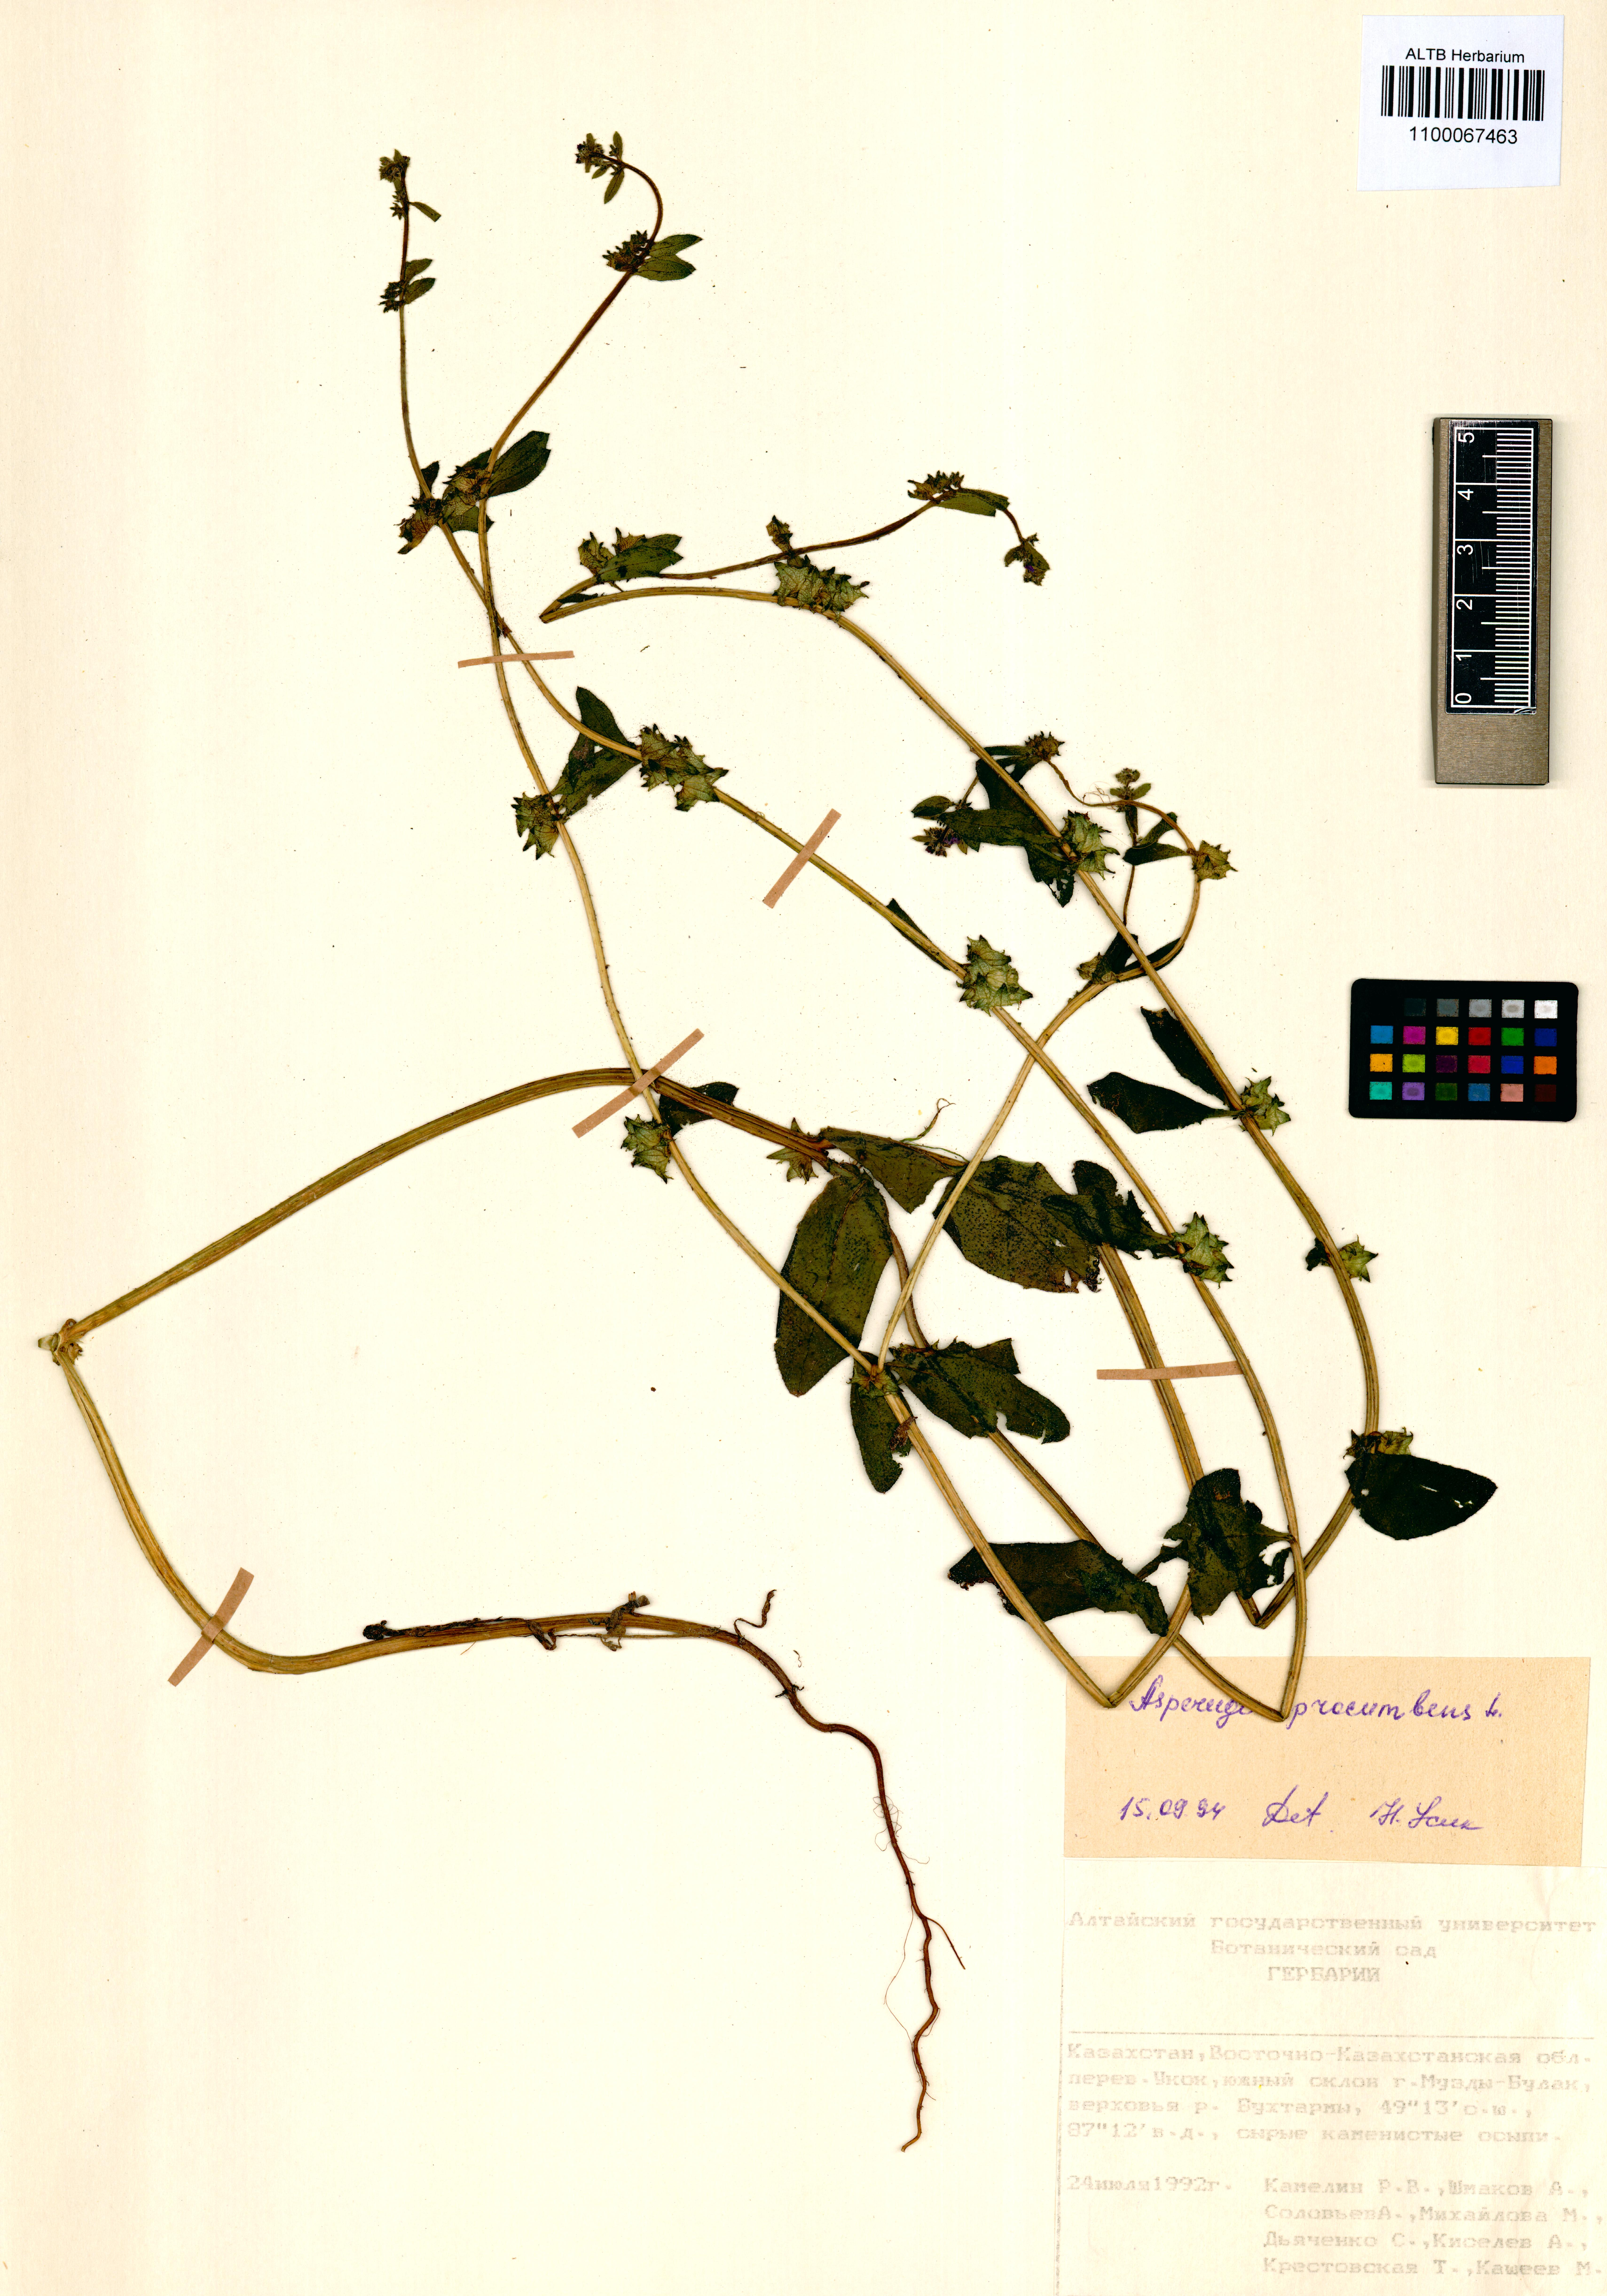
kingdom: Plantae
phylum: Tracheophyta
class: Magnoliopsida
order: Boraginales
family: Boraginaceae
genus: Asperugo
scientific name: Asperugo procumbens
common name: Madwort
